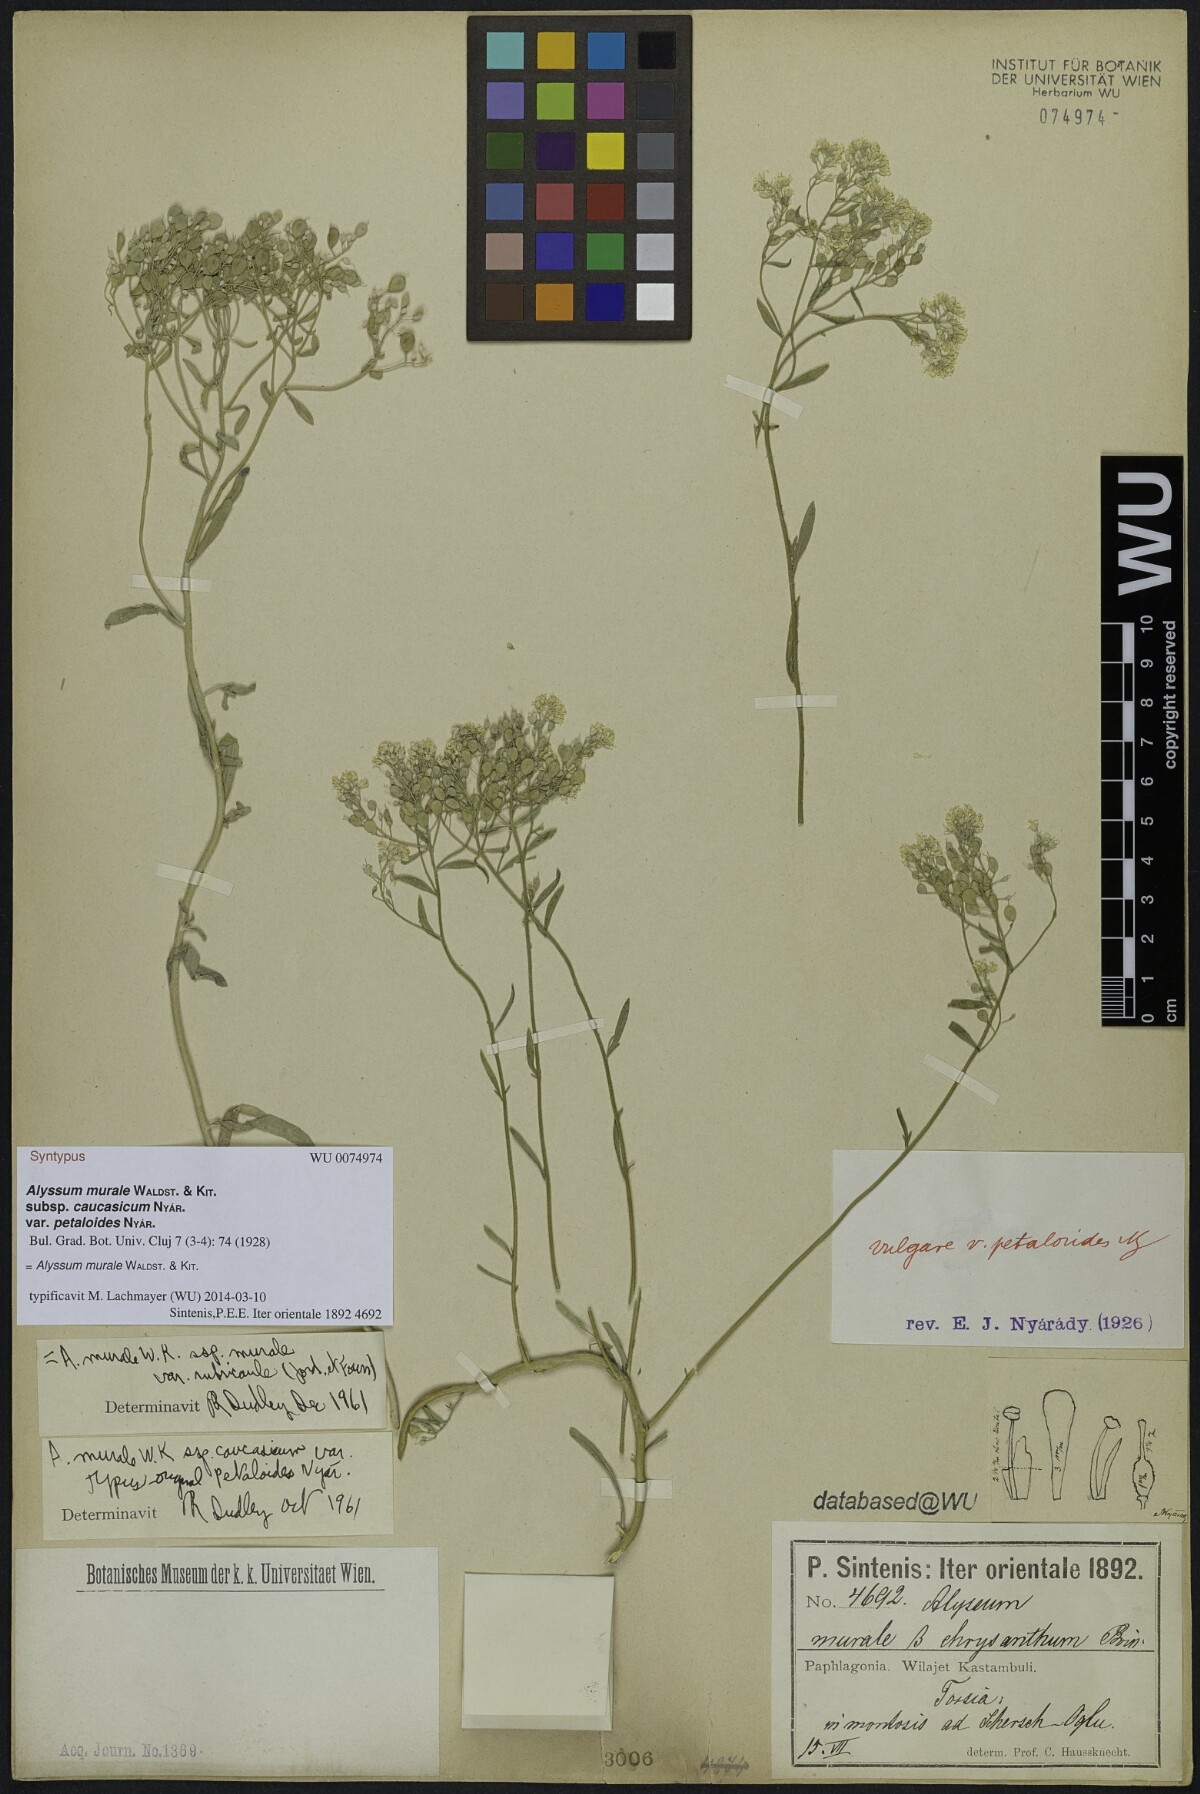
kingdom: Plantae
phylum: Tracheophyta
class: Magnoliopsida
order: Brassicales
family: Brassicaceae
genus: Odontarrhena
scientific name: Odontarrhena muralis
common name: Rock alyssum
